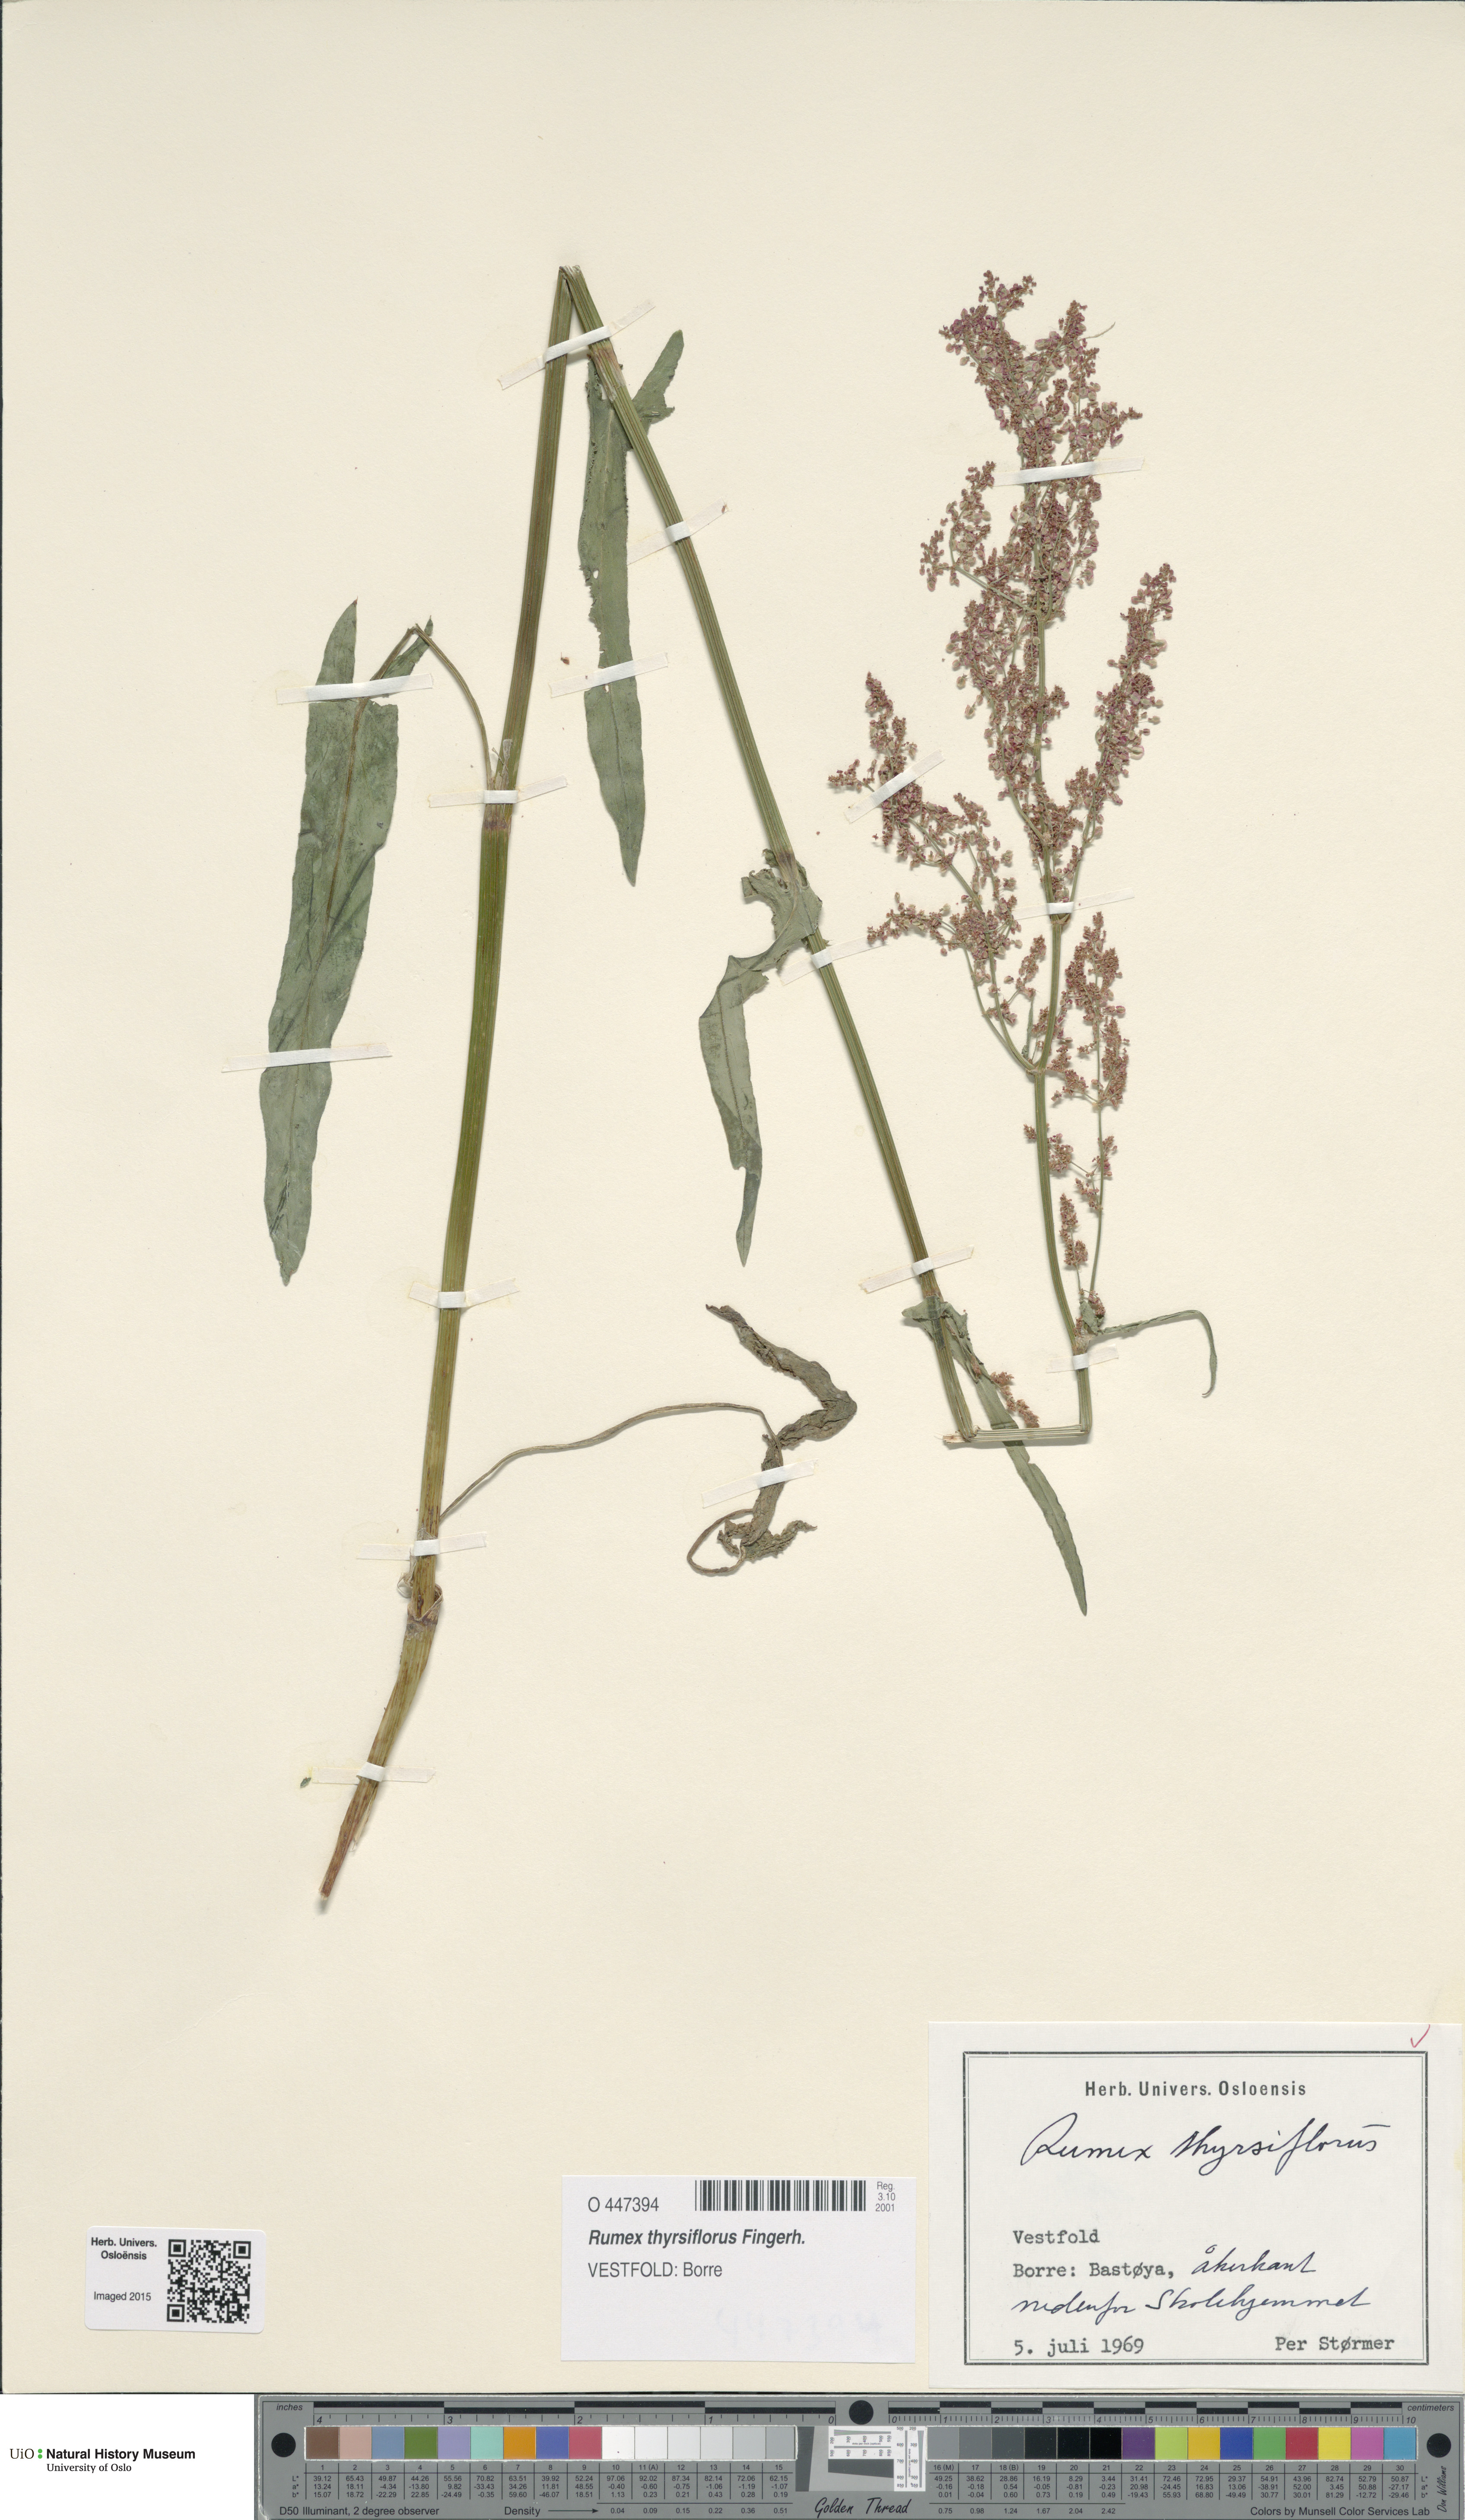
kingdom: Plantae
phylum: Tracheophyta
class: Magnoliopsida
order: Caryophyllales
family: Polygonaceae
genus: Rumex
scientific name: Rumex thyrsiflorus
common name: Garden sorrel
